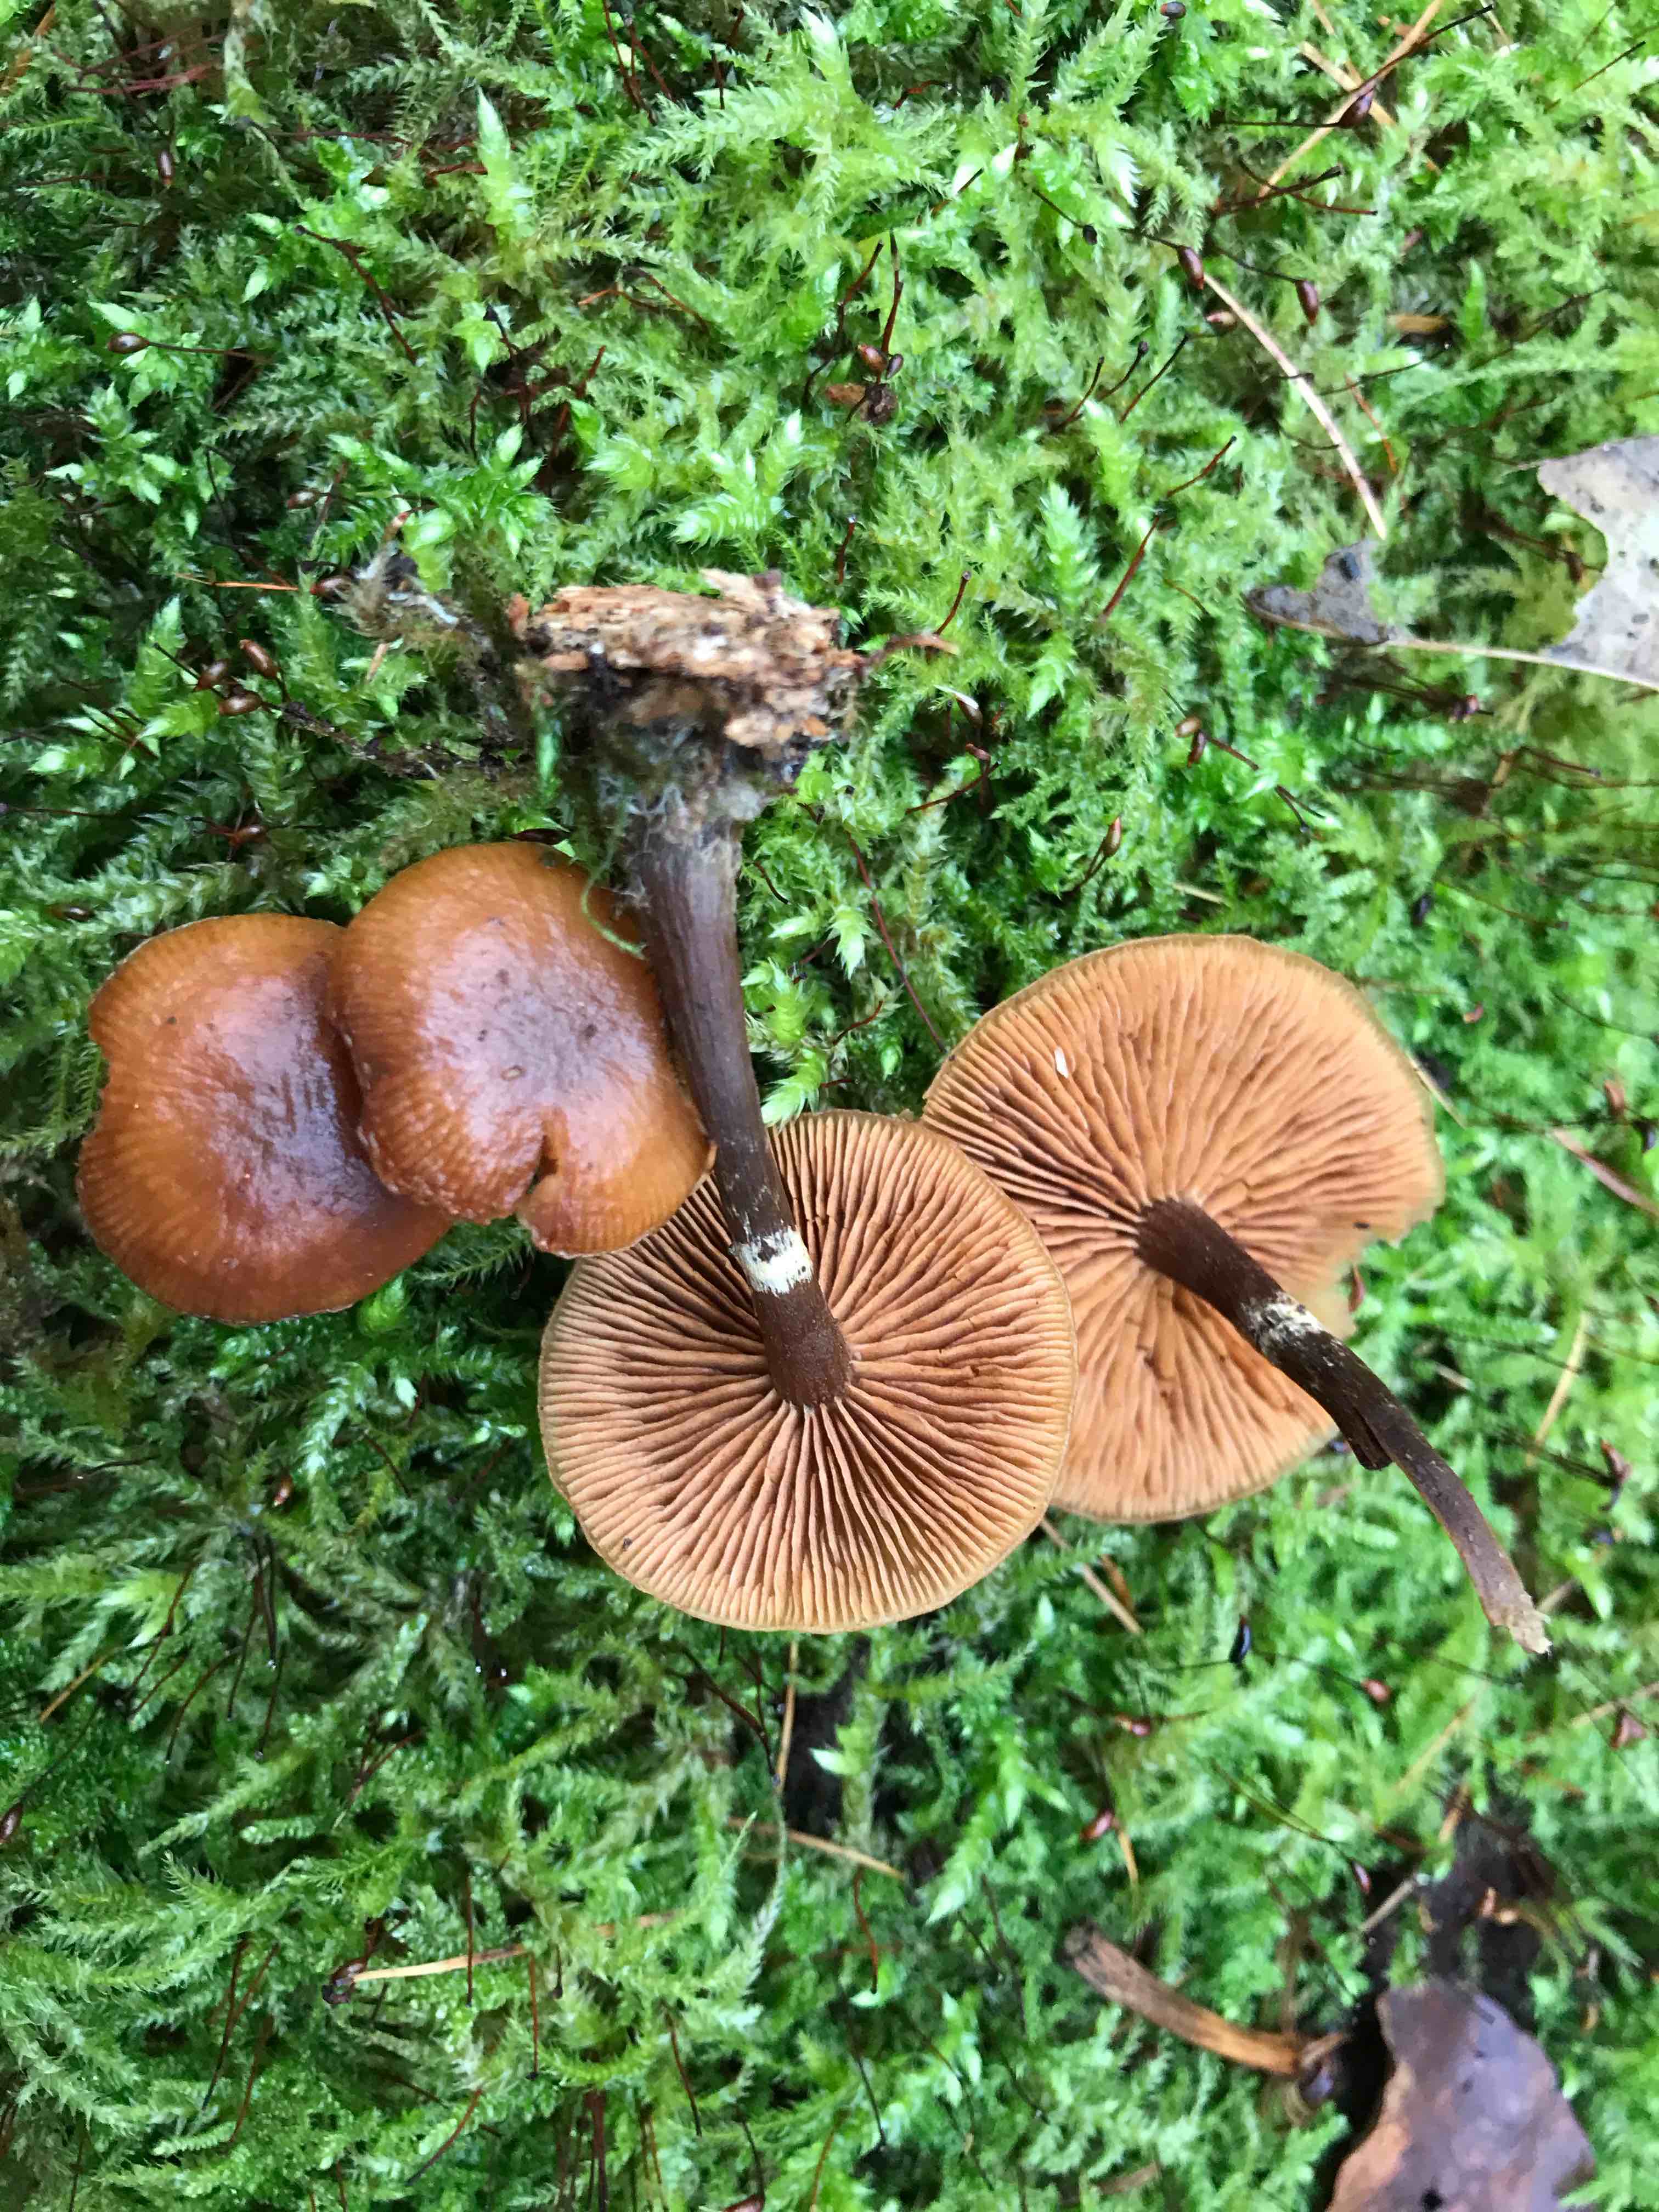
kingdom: Fungi
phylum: Basidiomycota
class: Agaricomycetes
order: Agaricales
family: Hymenogastraceae
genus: Galerina
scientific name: Galerina marginata
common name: randbæltet hjelmhat
